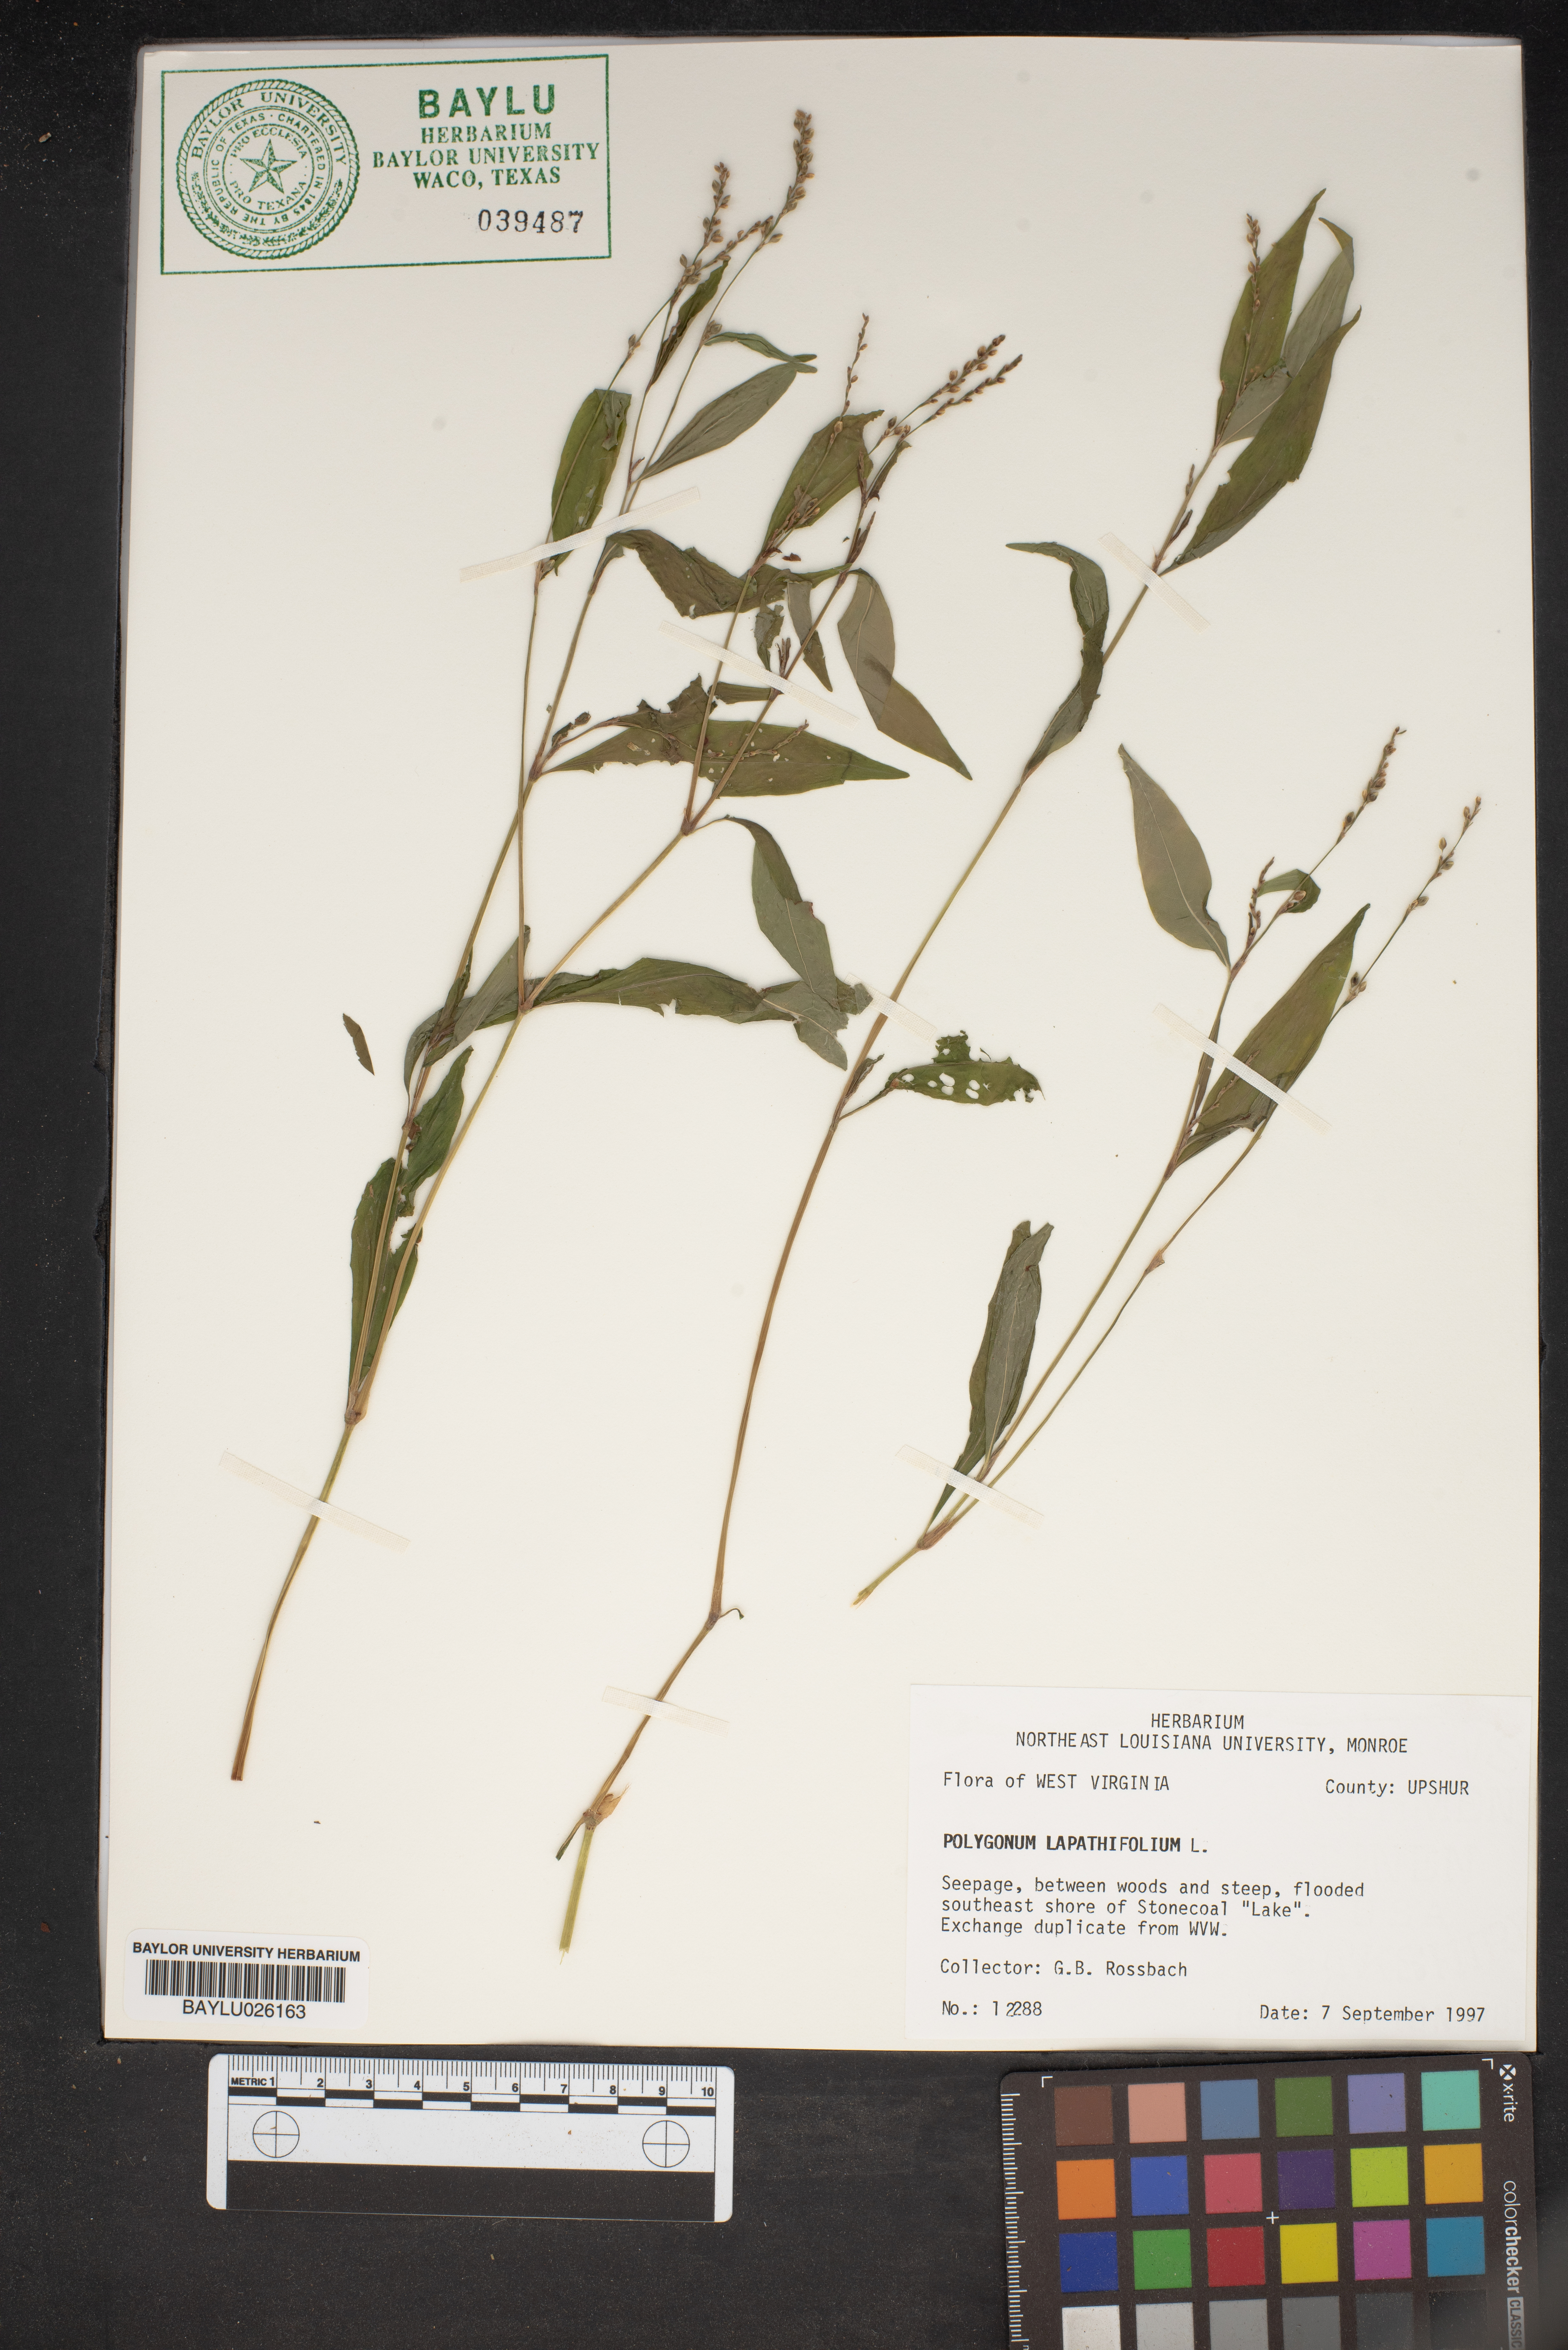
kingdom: Plantae
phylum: Tracheophyta
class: Magnoliopsida
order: Caryophyllales
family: Polygonaceae
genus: Persicaria
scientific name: Persicaria lapathifolia
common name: Curlytop knotweed
